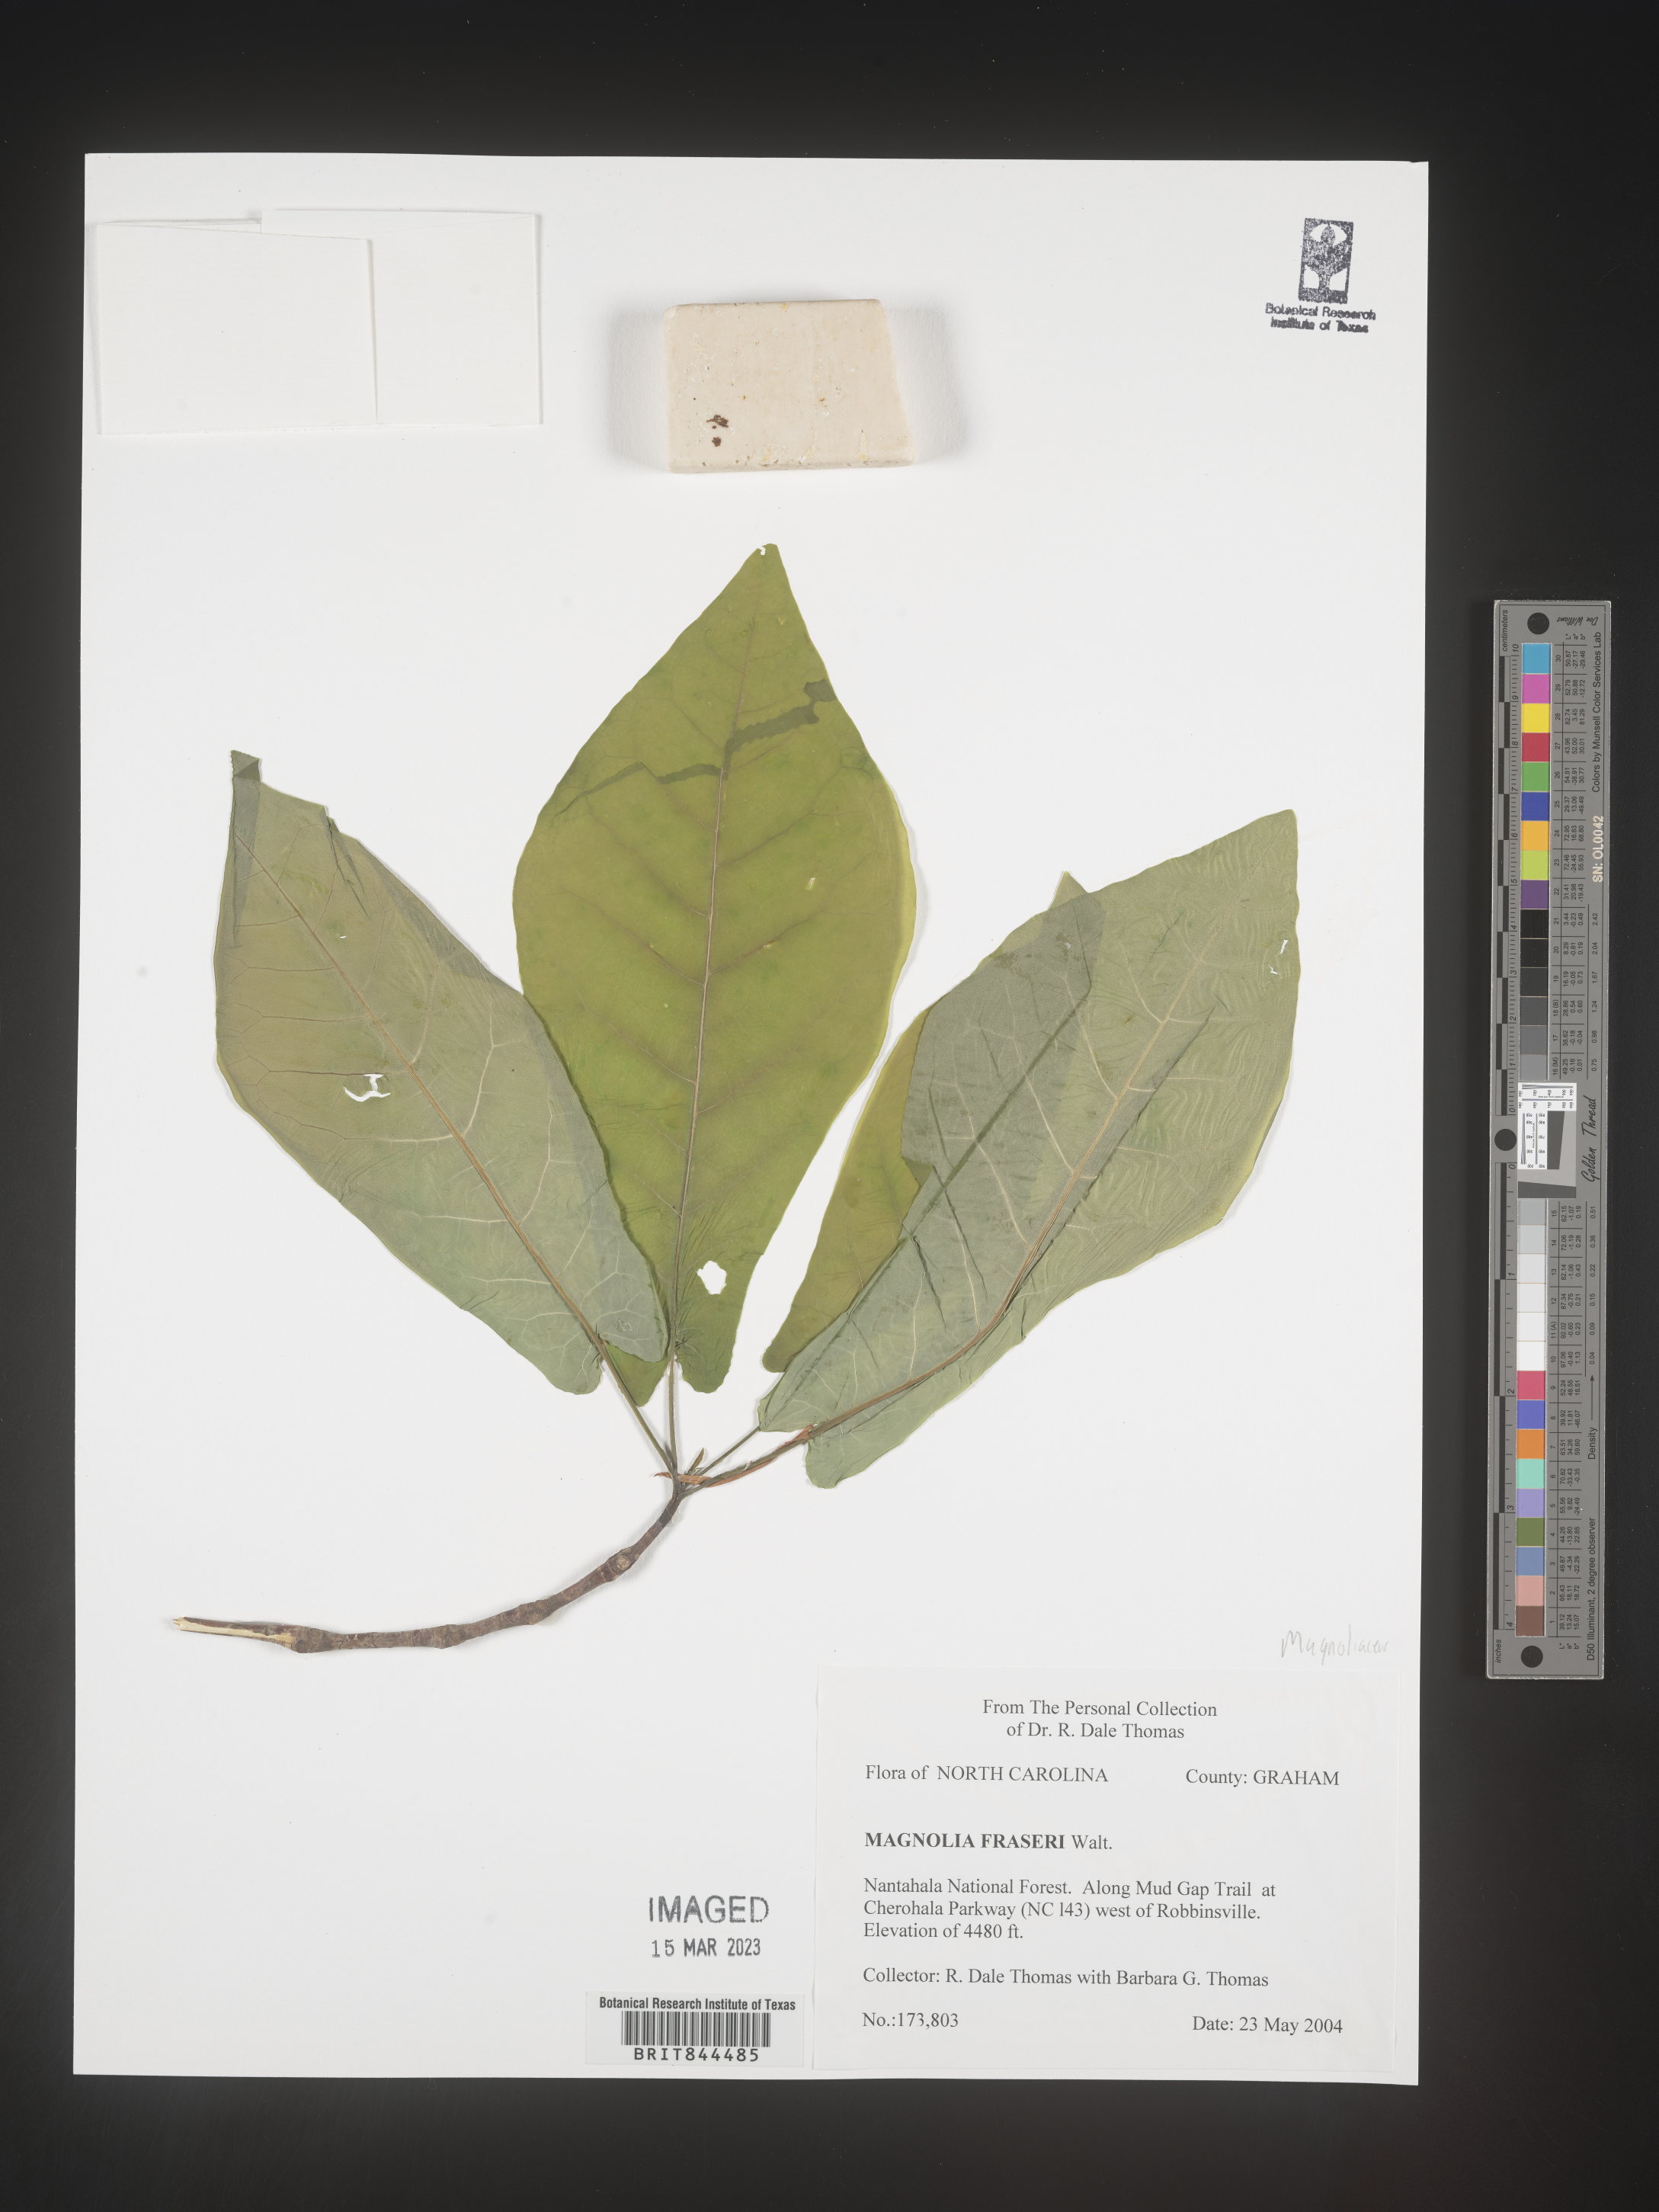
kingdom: Plantae
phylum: Tracheophyta
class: Magnoliopsida
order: Magnoliales
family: Magnoliaceae
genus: Magnolia
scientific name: Magnolia
